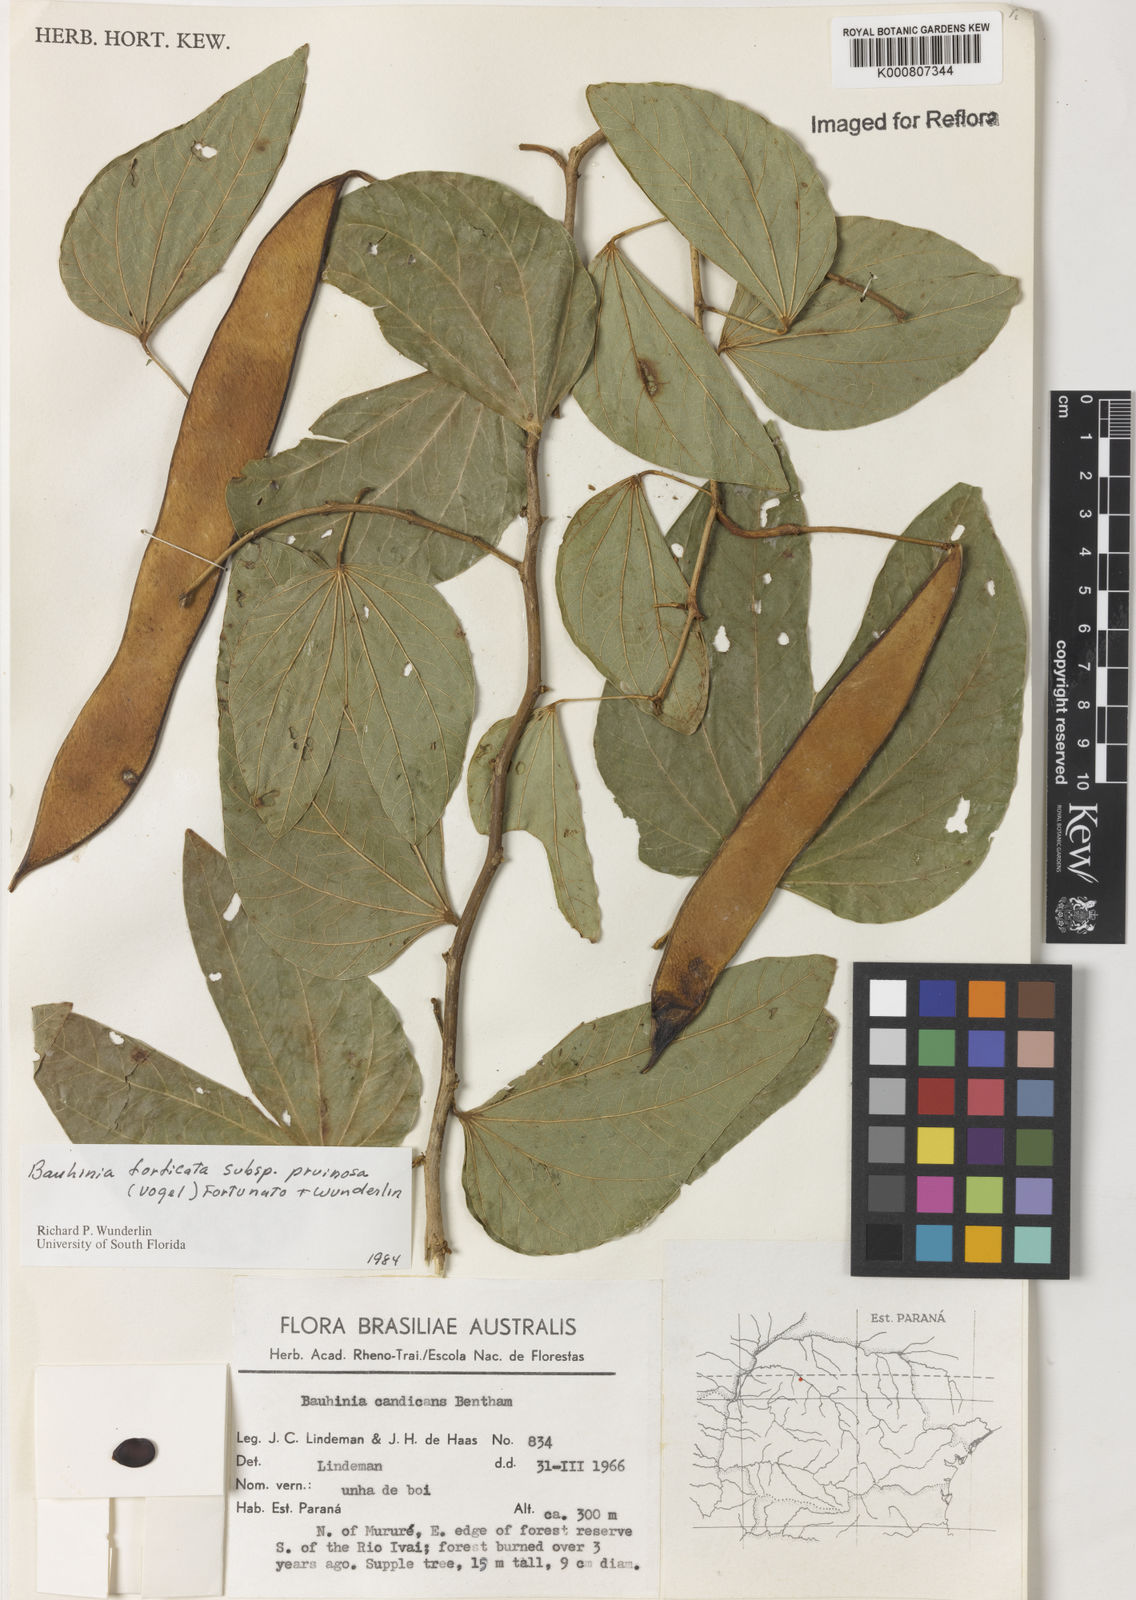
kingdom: Plantae
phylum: Tracheophyta
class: Magnoliopsida
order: Fabales
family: Fabaceae
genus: Bauhinia
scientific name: Bauhinia forficata
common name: Orchid tree
